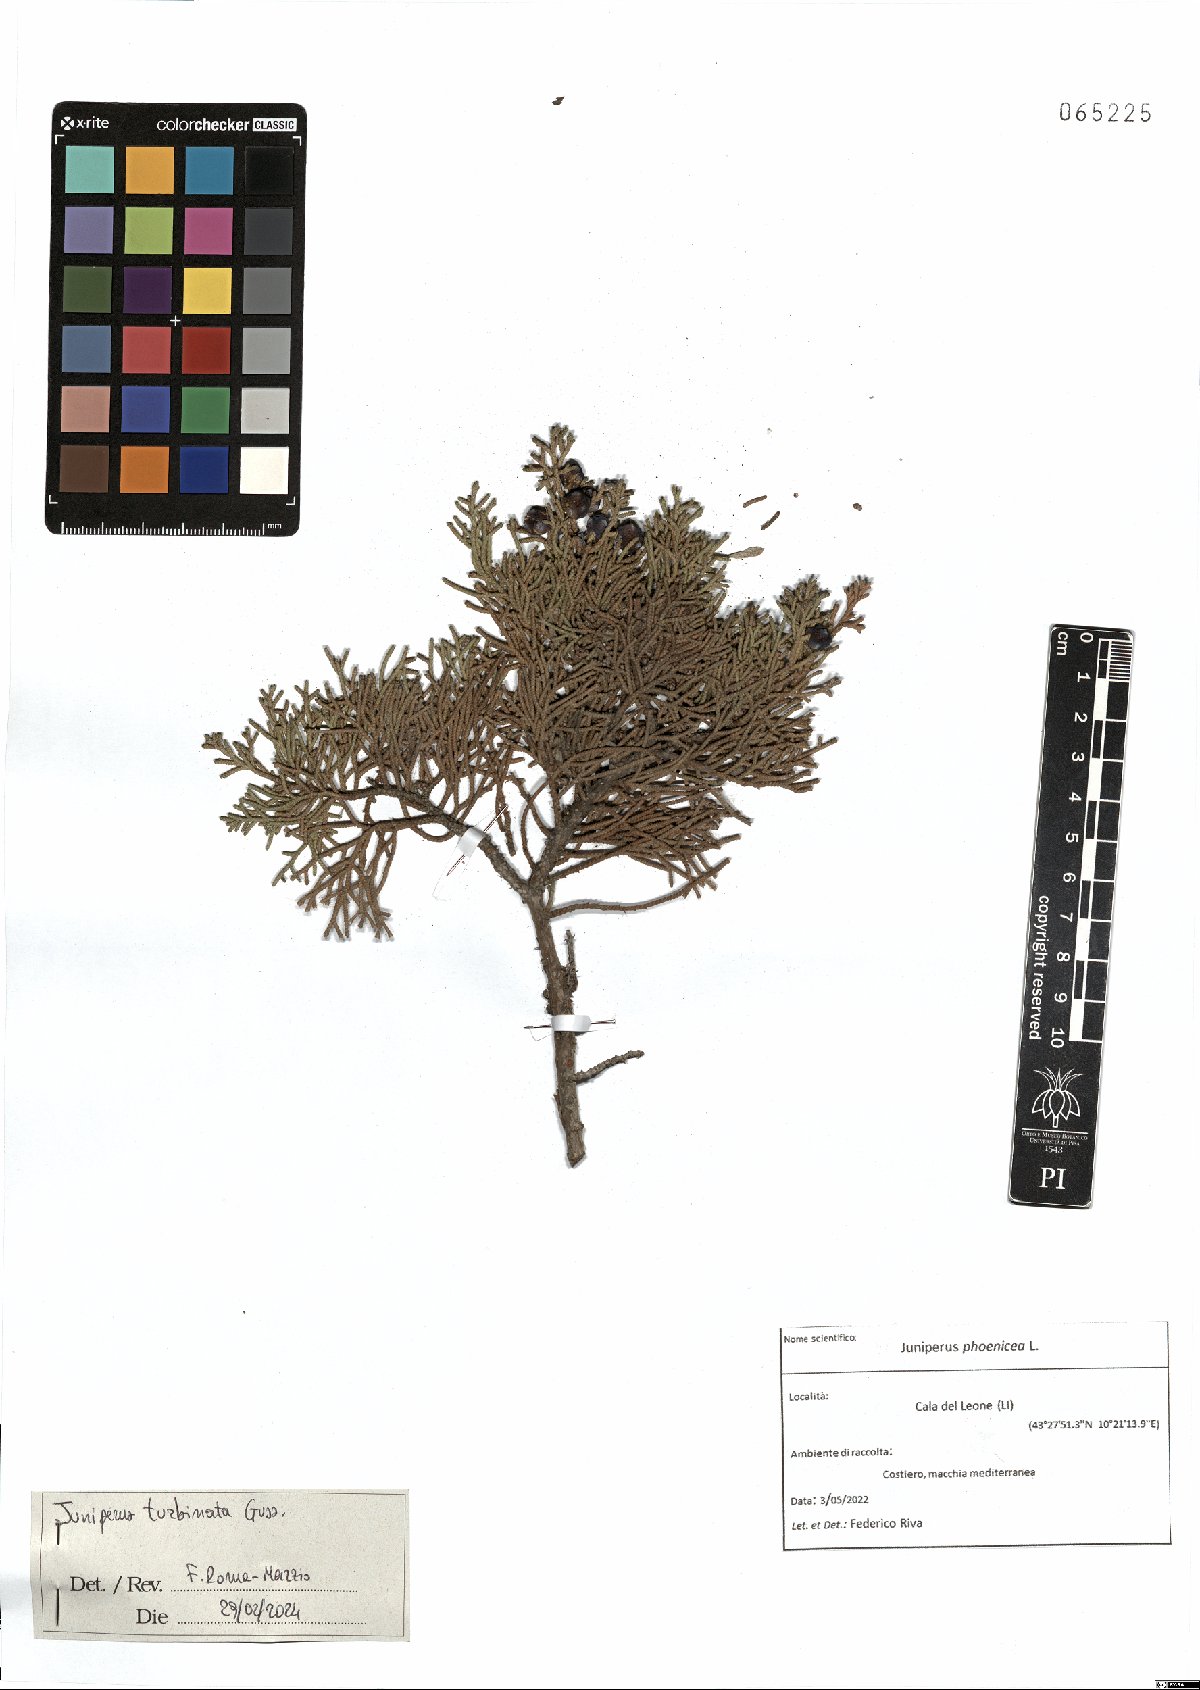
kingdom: Plantae
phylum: Tracheophyta
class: Pinopsida
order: Pinales
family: Cupressaceae
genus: Juniperus
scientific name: Juniperus phoenicea
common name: Phoenician juniper
